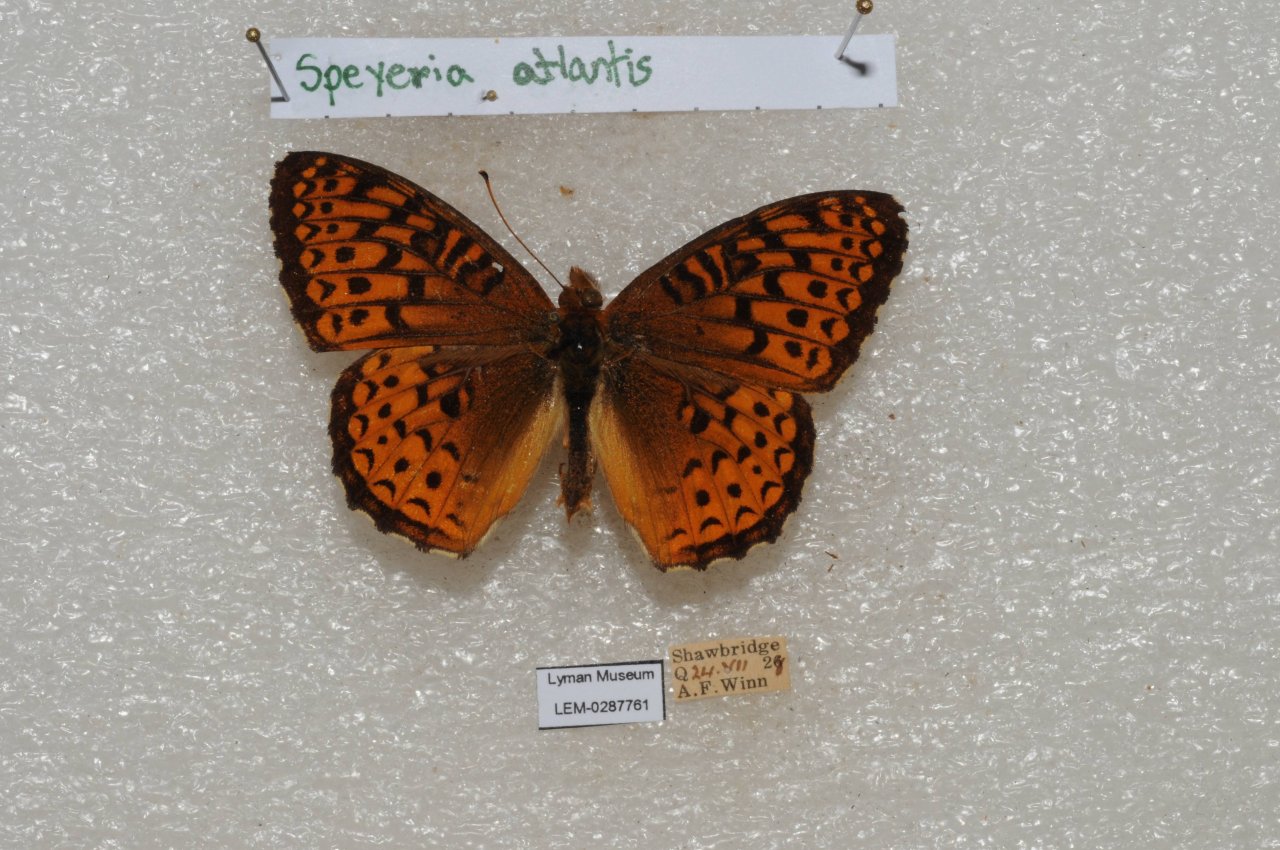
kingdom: Animalia
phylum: Arthropoda
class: Insecta
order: Lepidoptera
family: Nymphalidae
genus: Speyeria
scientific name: Speyeria atlantis
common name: Atlantis Fritillary
